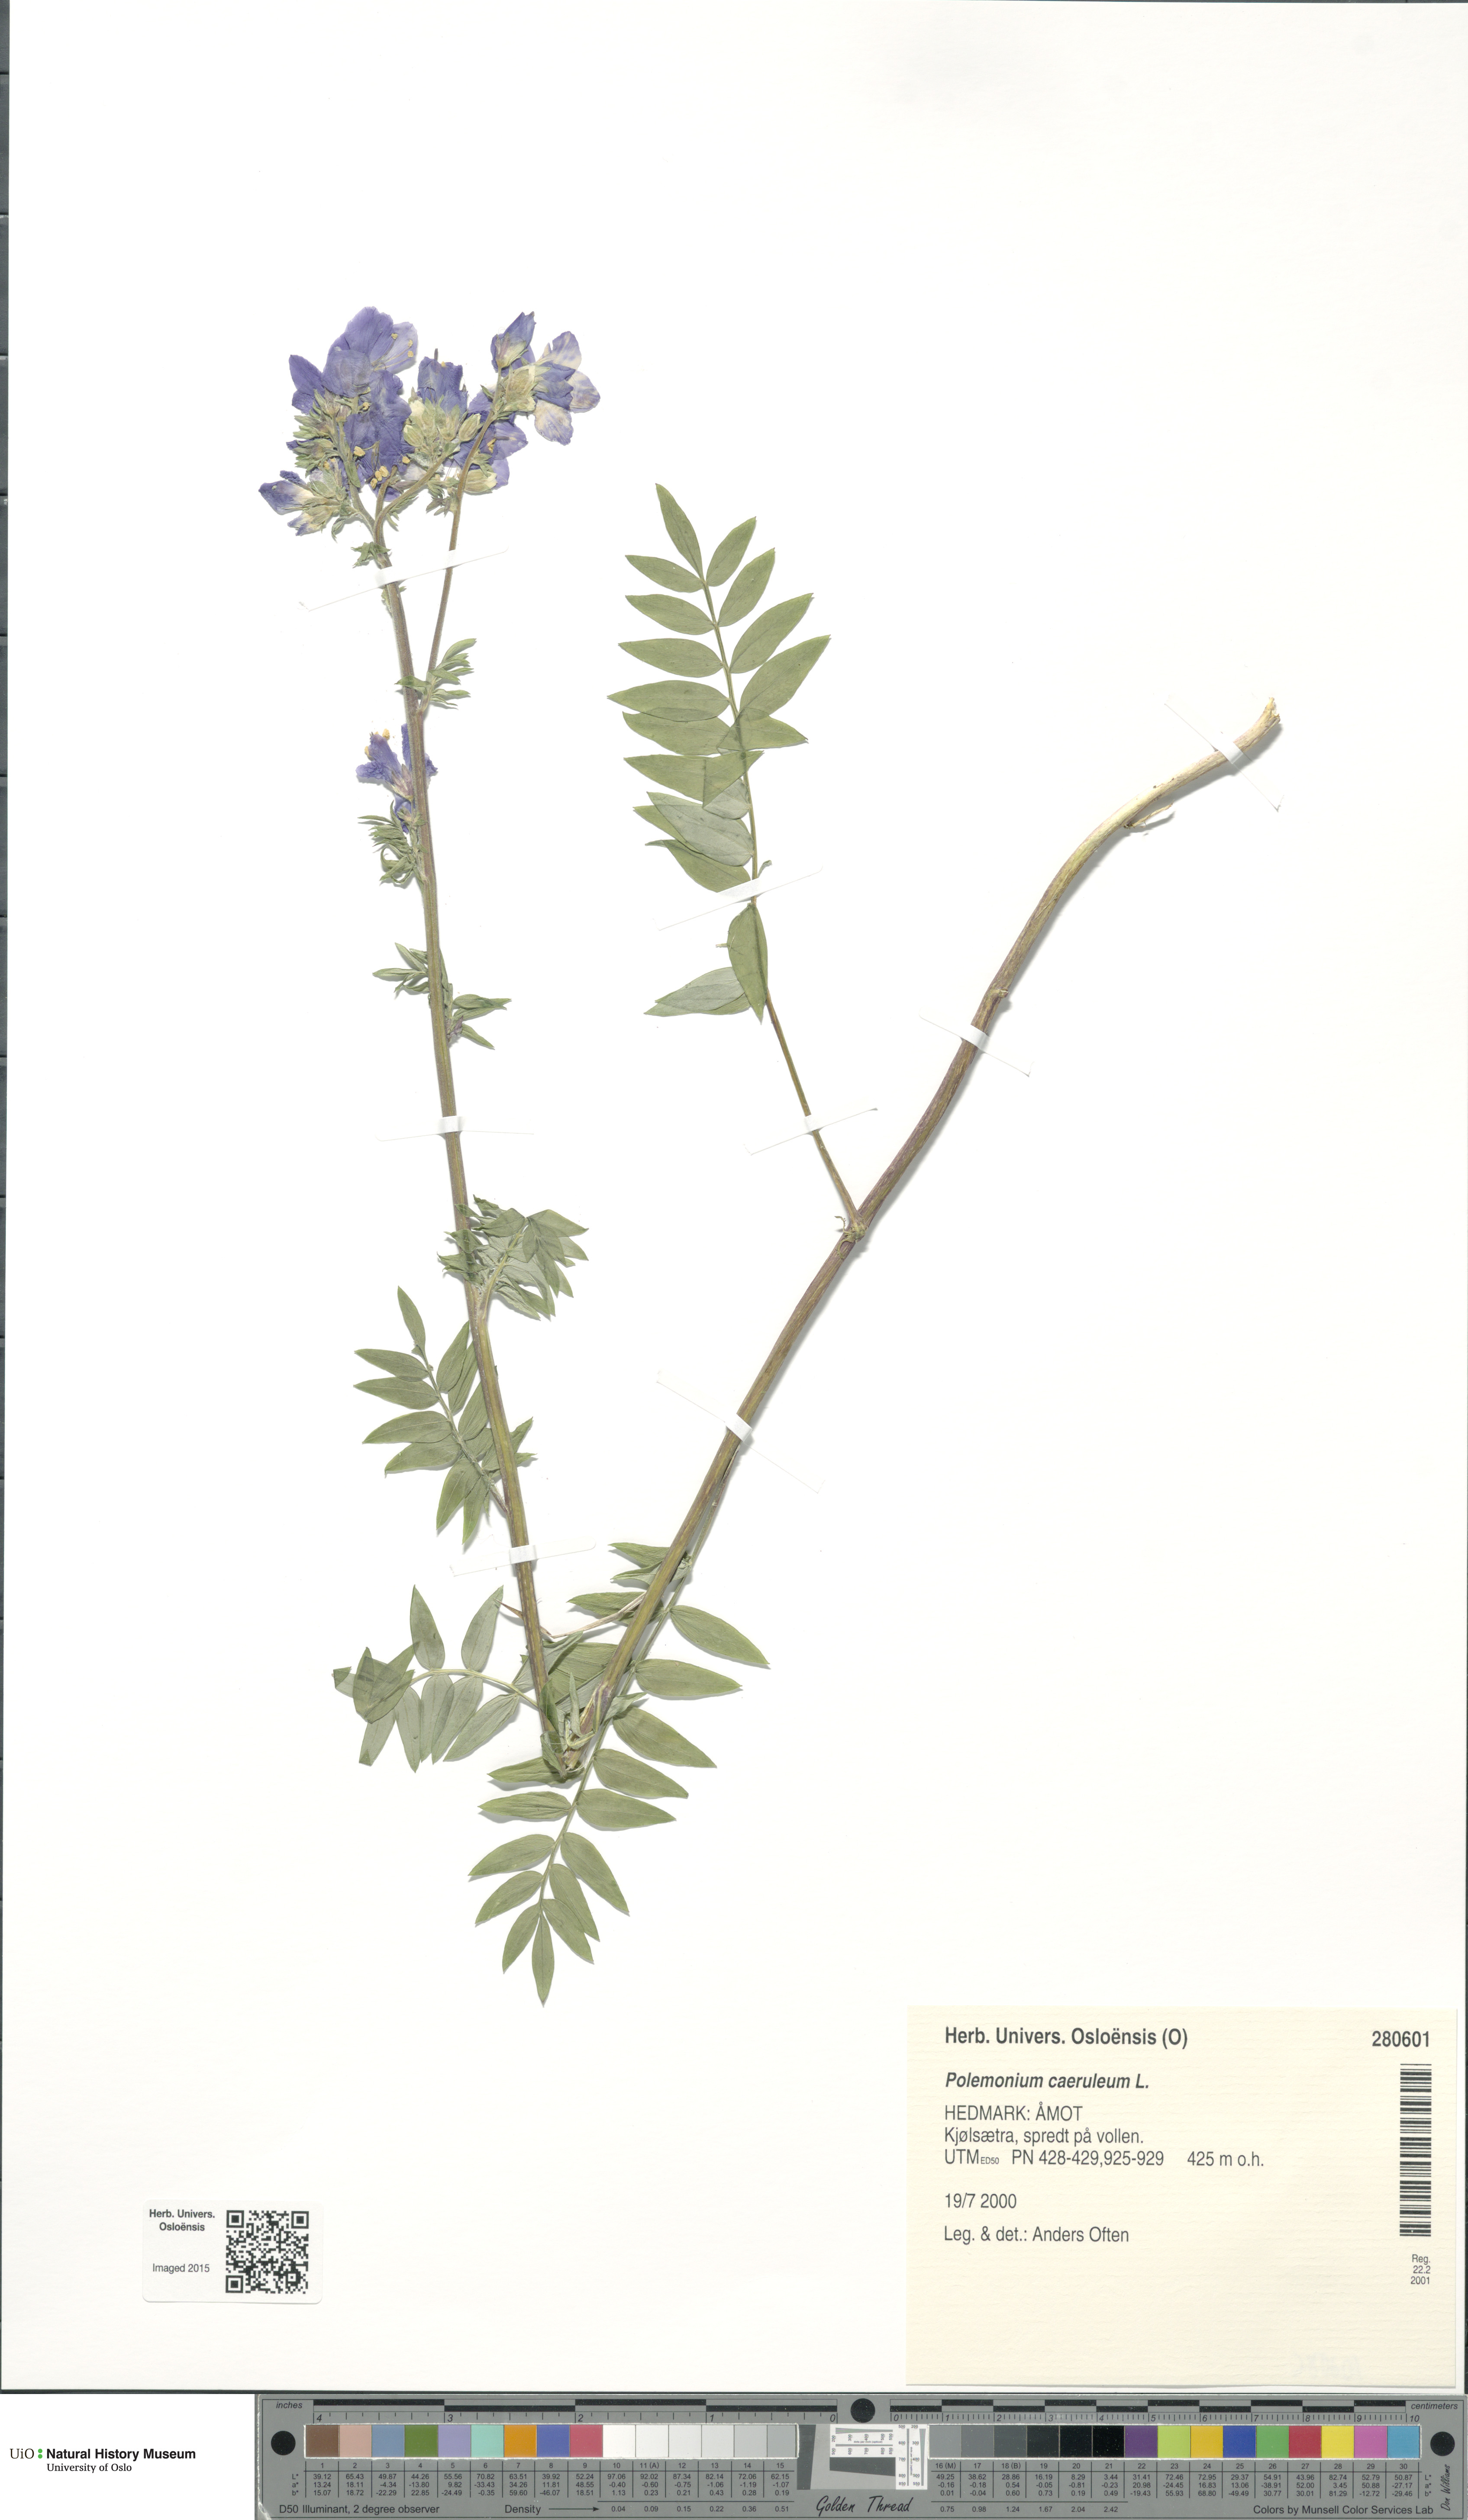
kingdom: Plantae
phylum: Tracheophyta
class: Magnoliopsida
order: Ericales
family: Polemoniaceae
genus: Polemonium
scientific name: Polemonium caeruleum
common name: Jacob's-ladder
